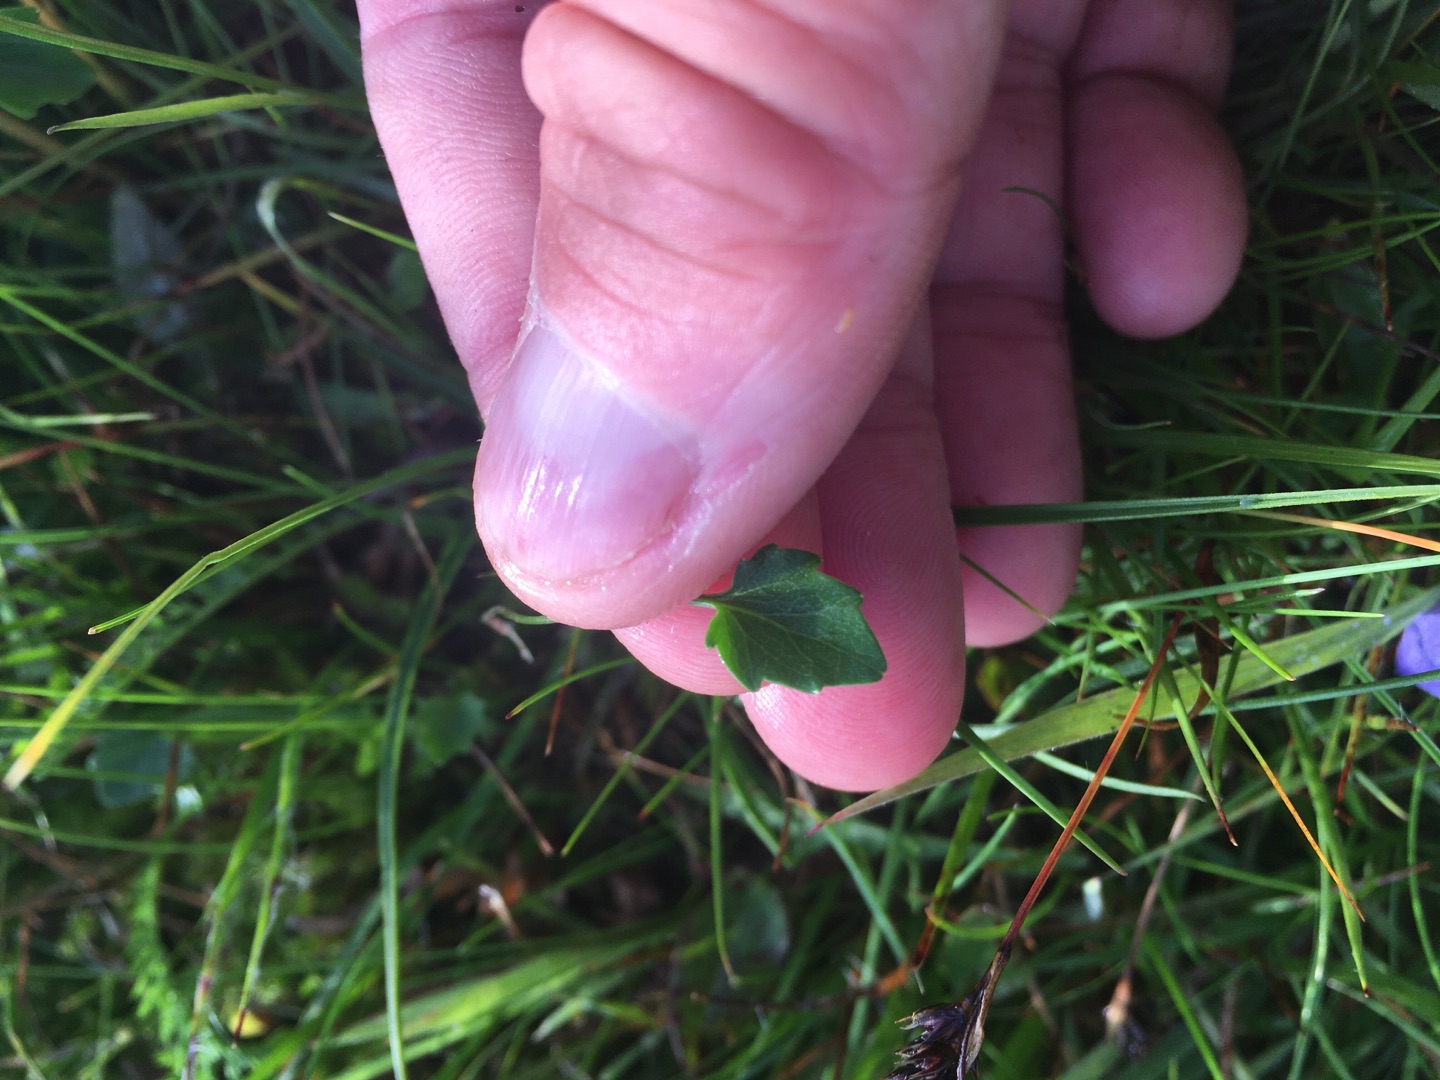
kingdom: Plantae
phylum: Tracheophyta
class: Magnoliopsida
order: Asterales
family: Campanulaceae
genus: Campanula
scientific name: Campanula rotundifolia
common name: Liden klokke
